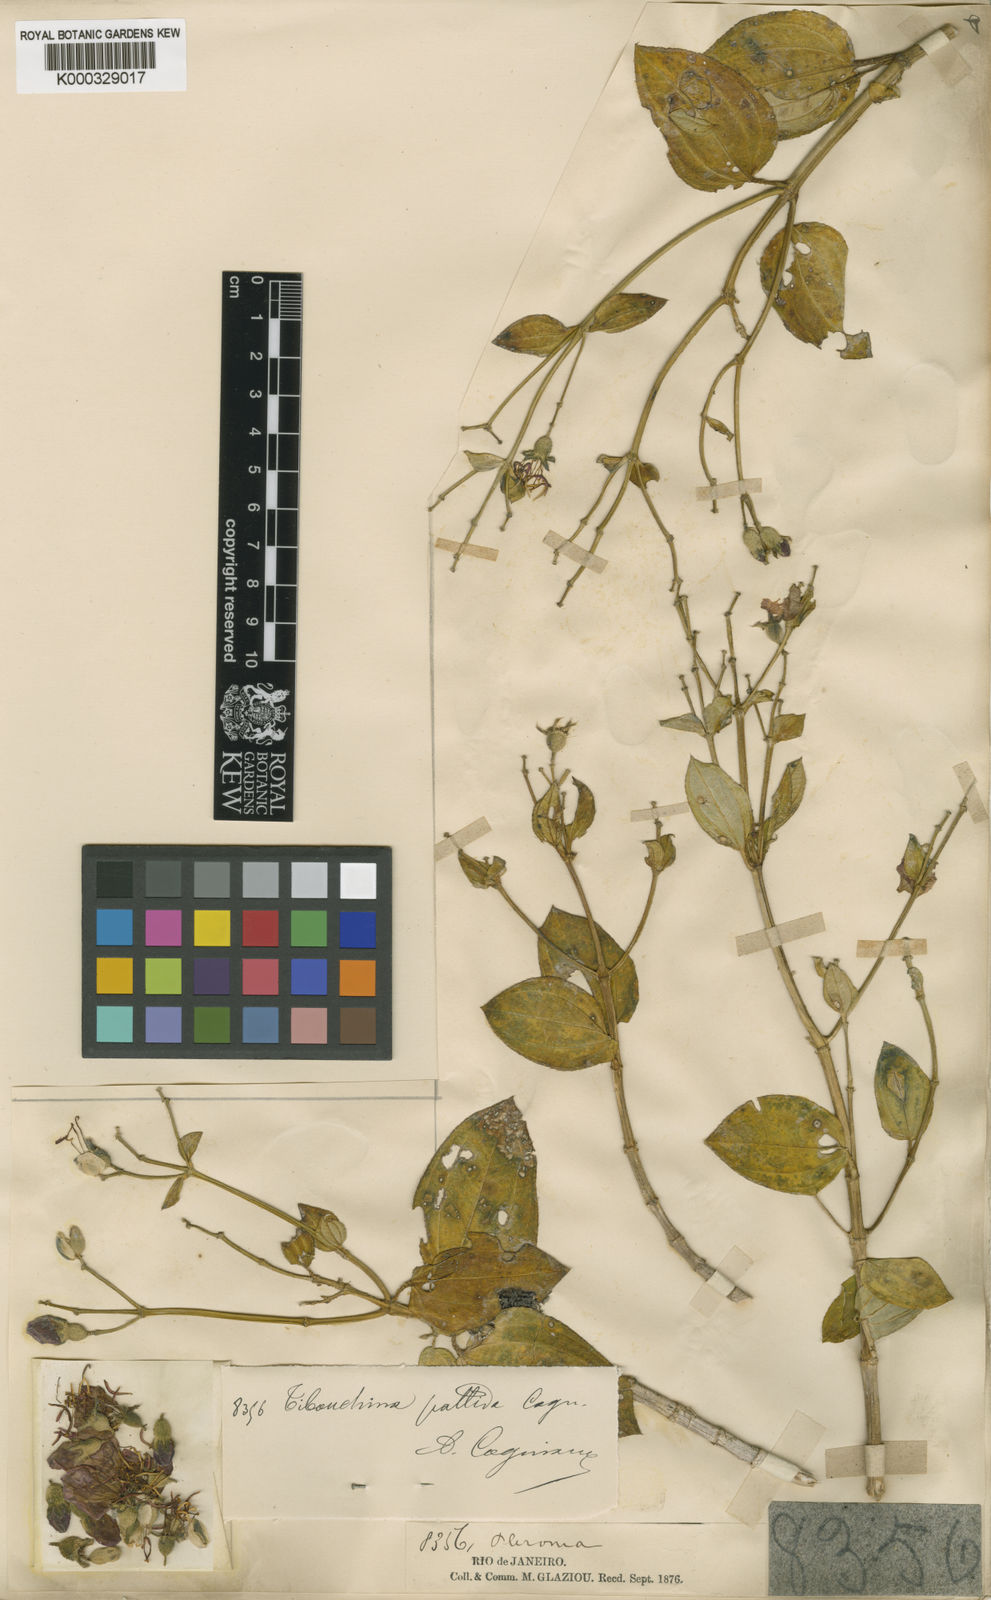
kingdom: Plantae
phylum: Tracheophyta
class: Magnoliopsida
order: Myrtales
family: Melastomataceae
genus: Pleroma
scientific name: Pleroma pallidum
